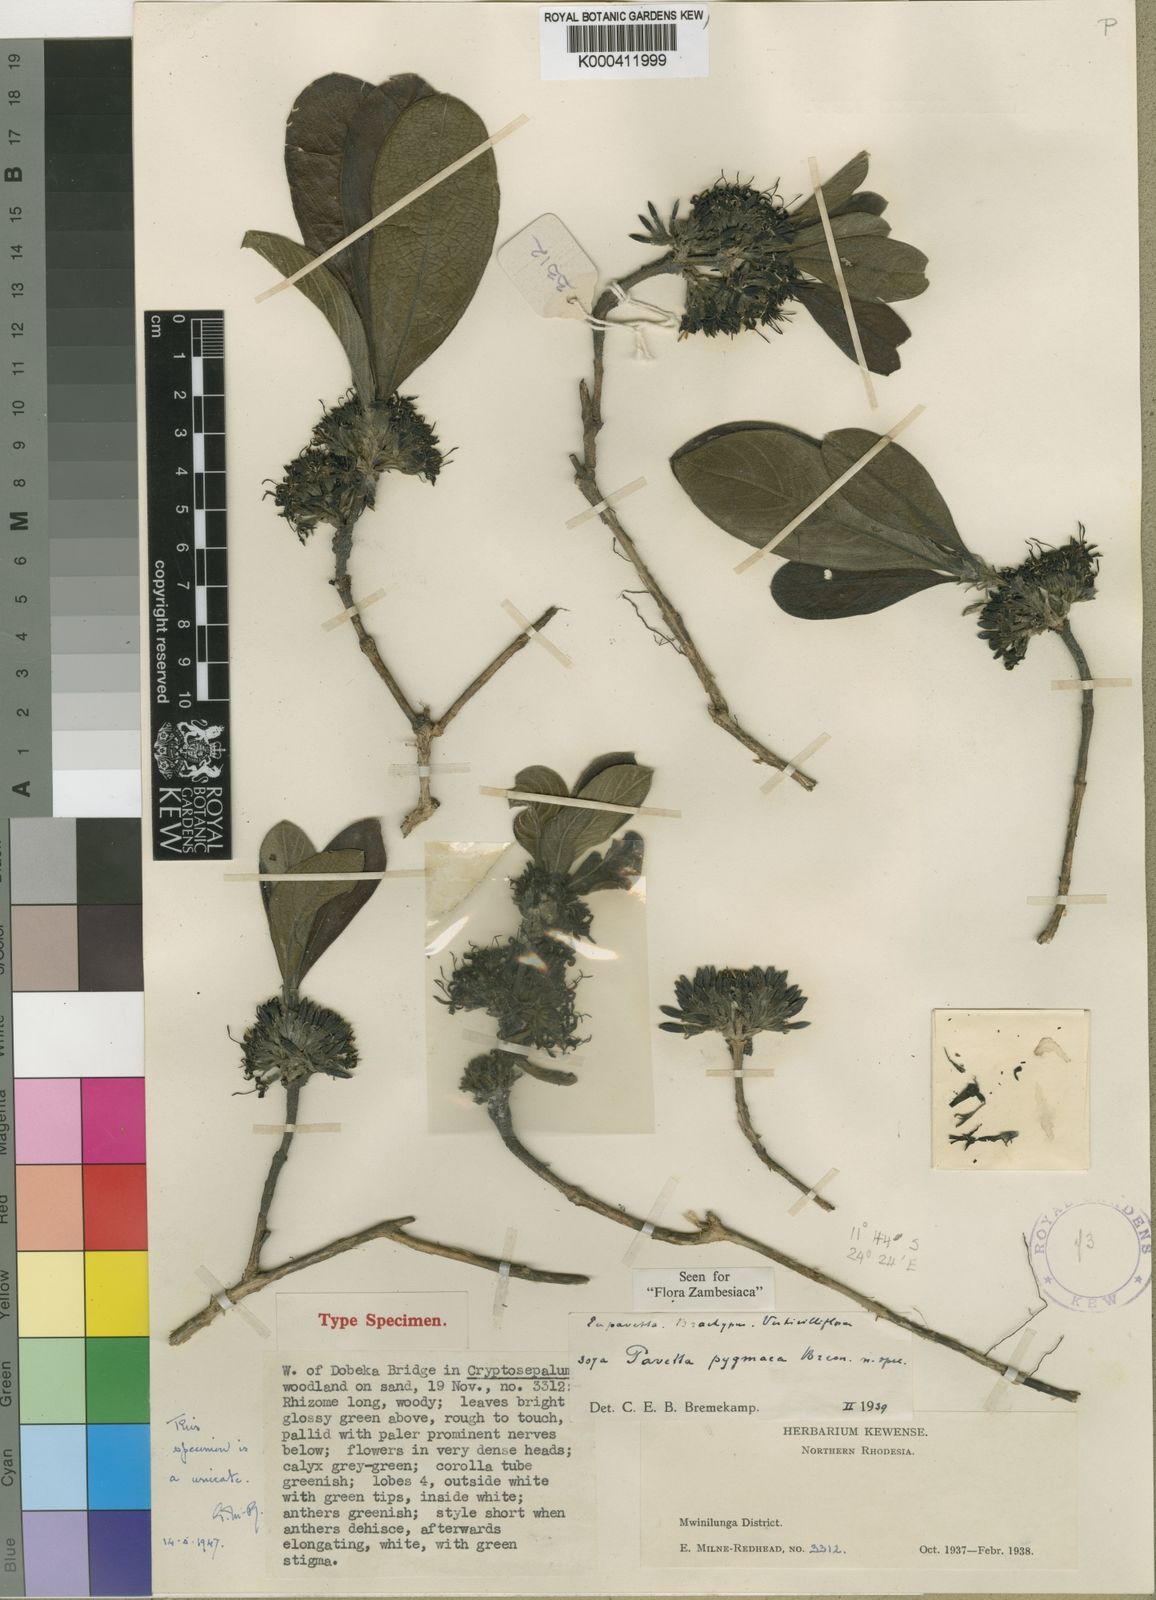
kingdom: Plantae
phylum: Tracheophyta
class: Magnoliopsida
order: Gentianales
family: Rubiaceae
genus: Pavetta
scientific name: Pavetta pygmaea
